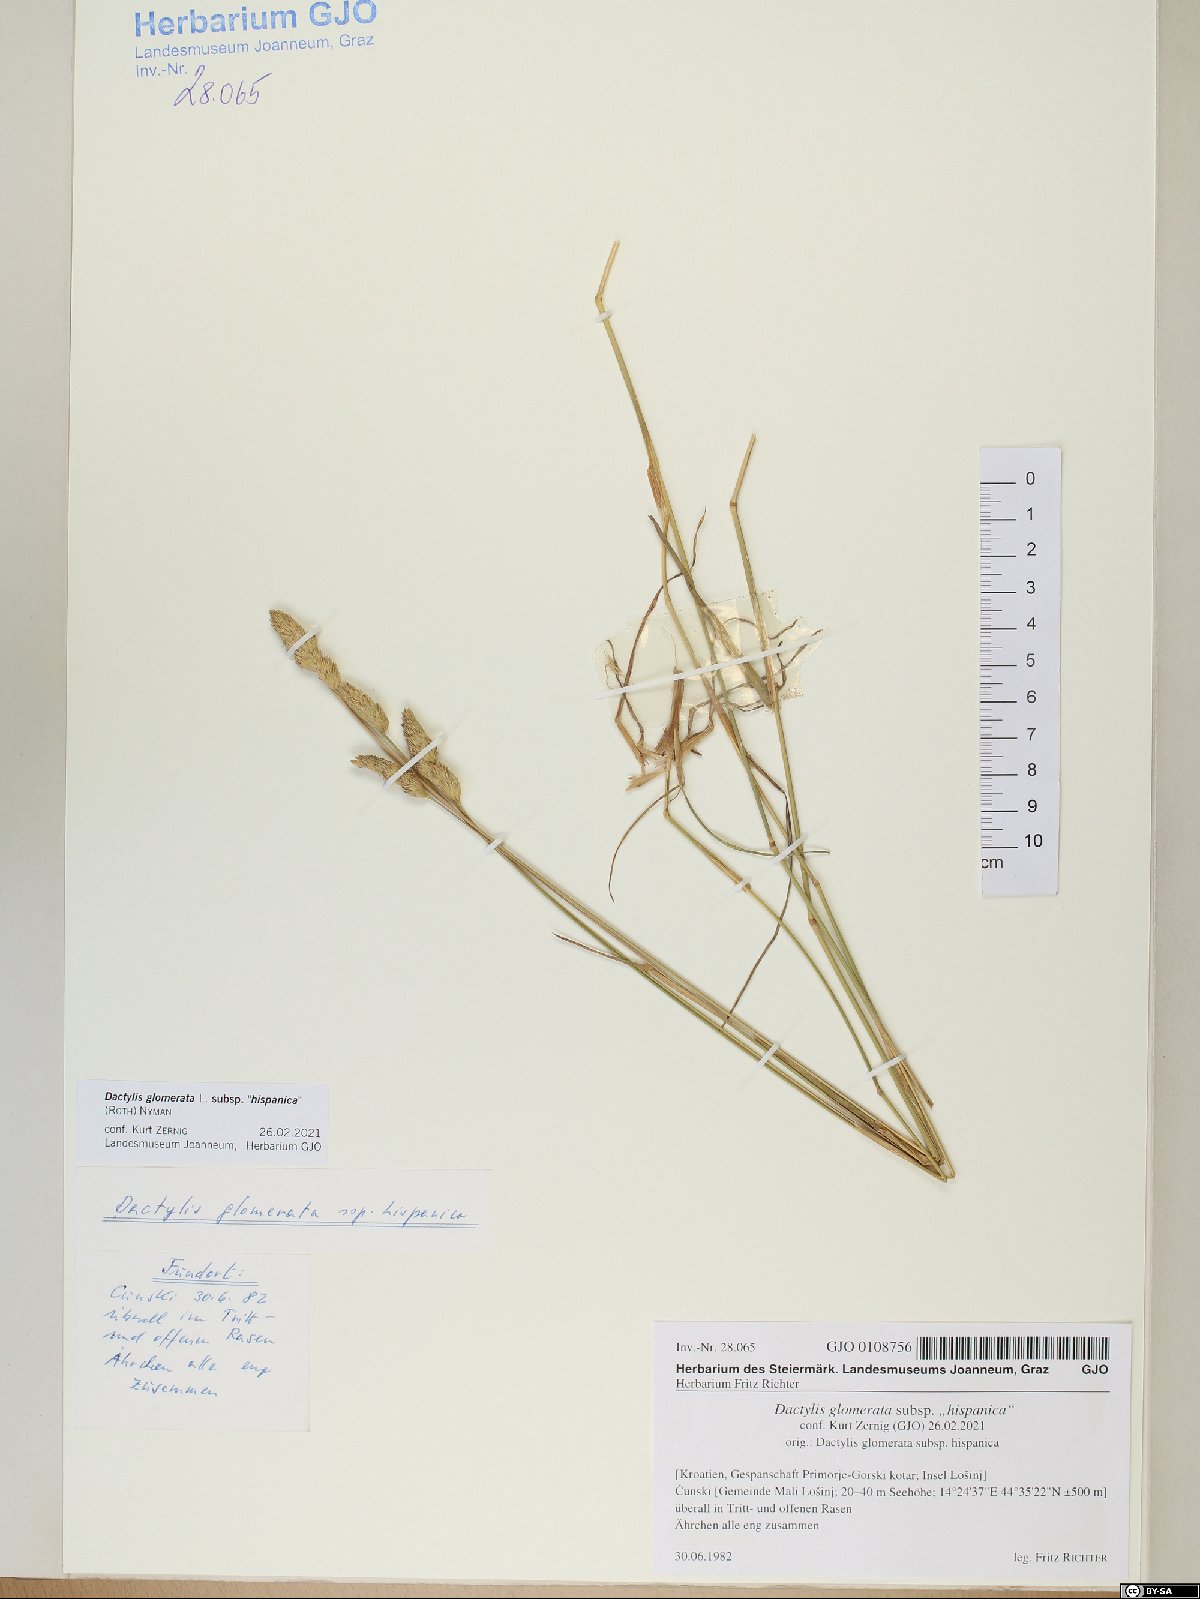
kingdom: Plantae
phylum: Tracheophyta
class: Liliopsida
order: Poales
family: Poaceae
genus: Dactylis
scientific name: Dactylis glomerata
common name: Orchardgrass
